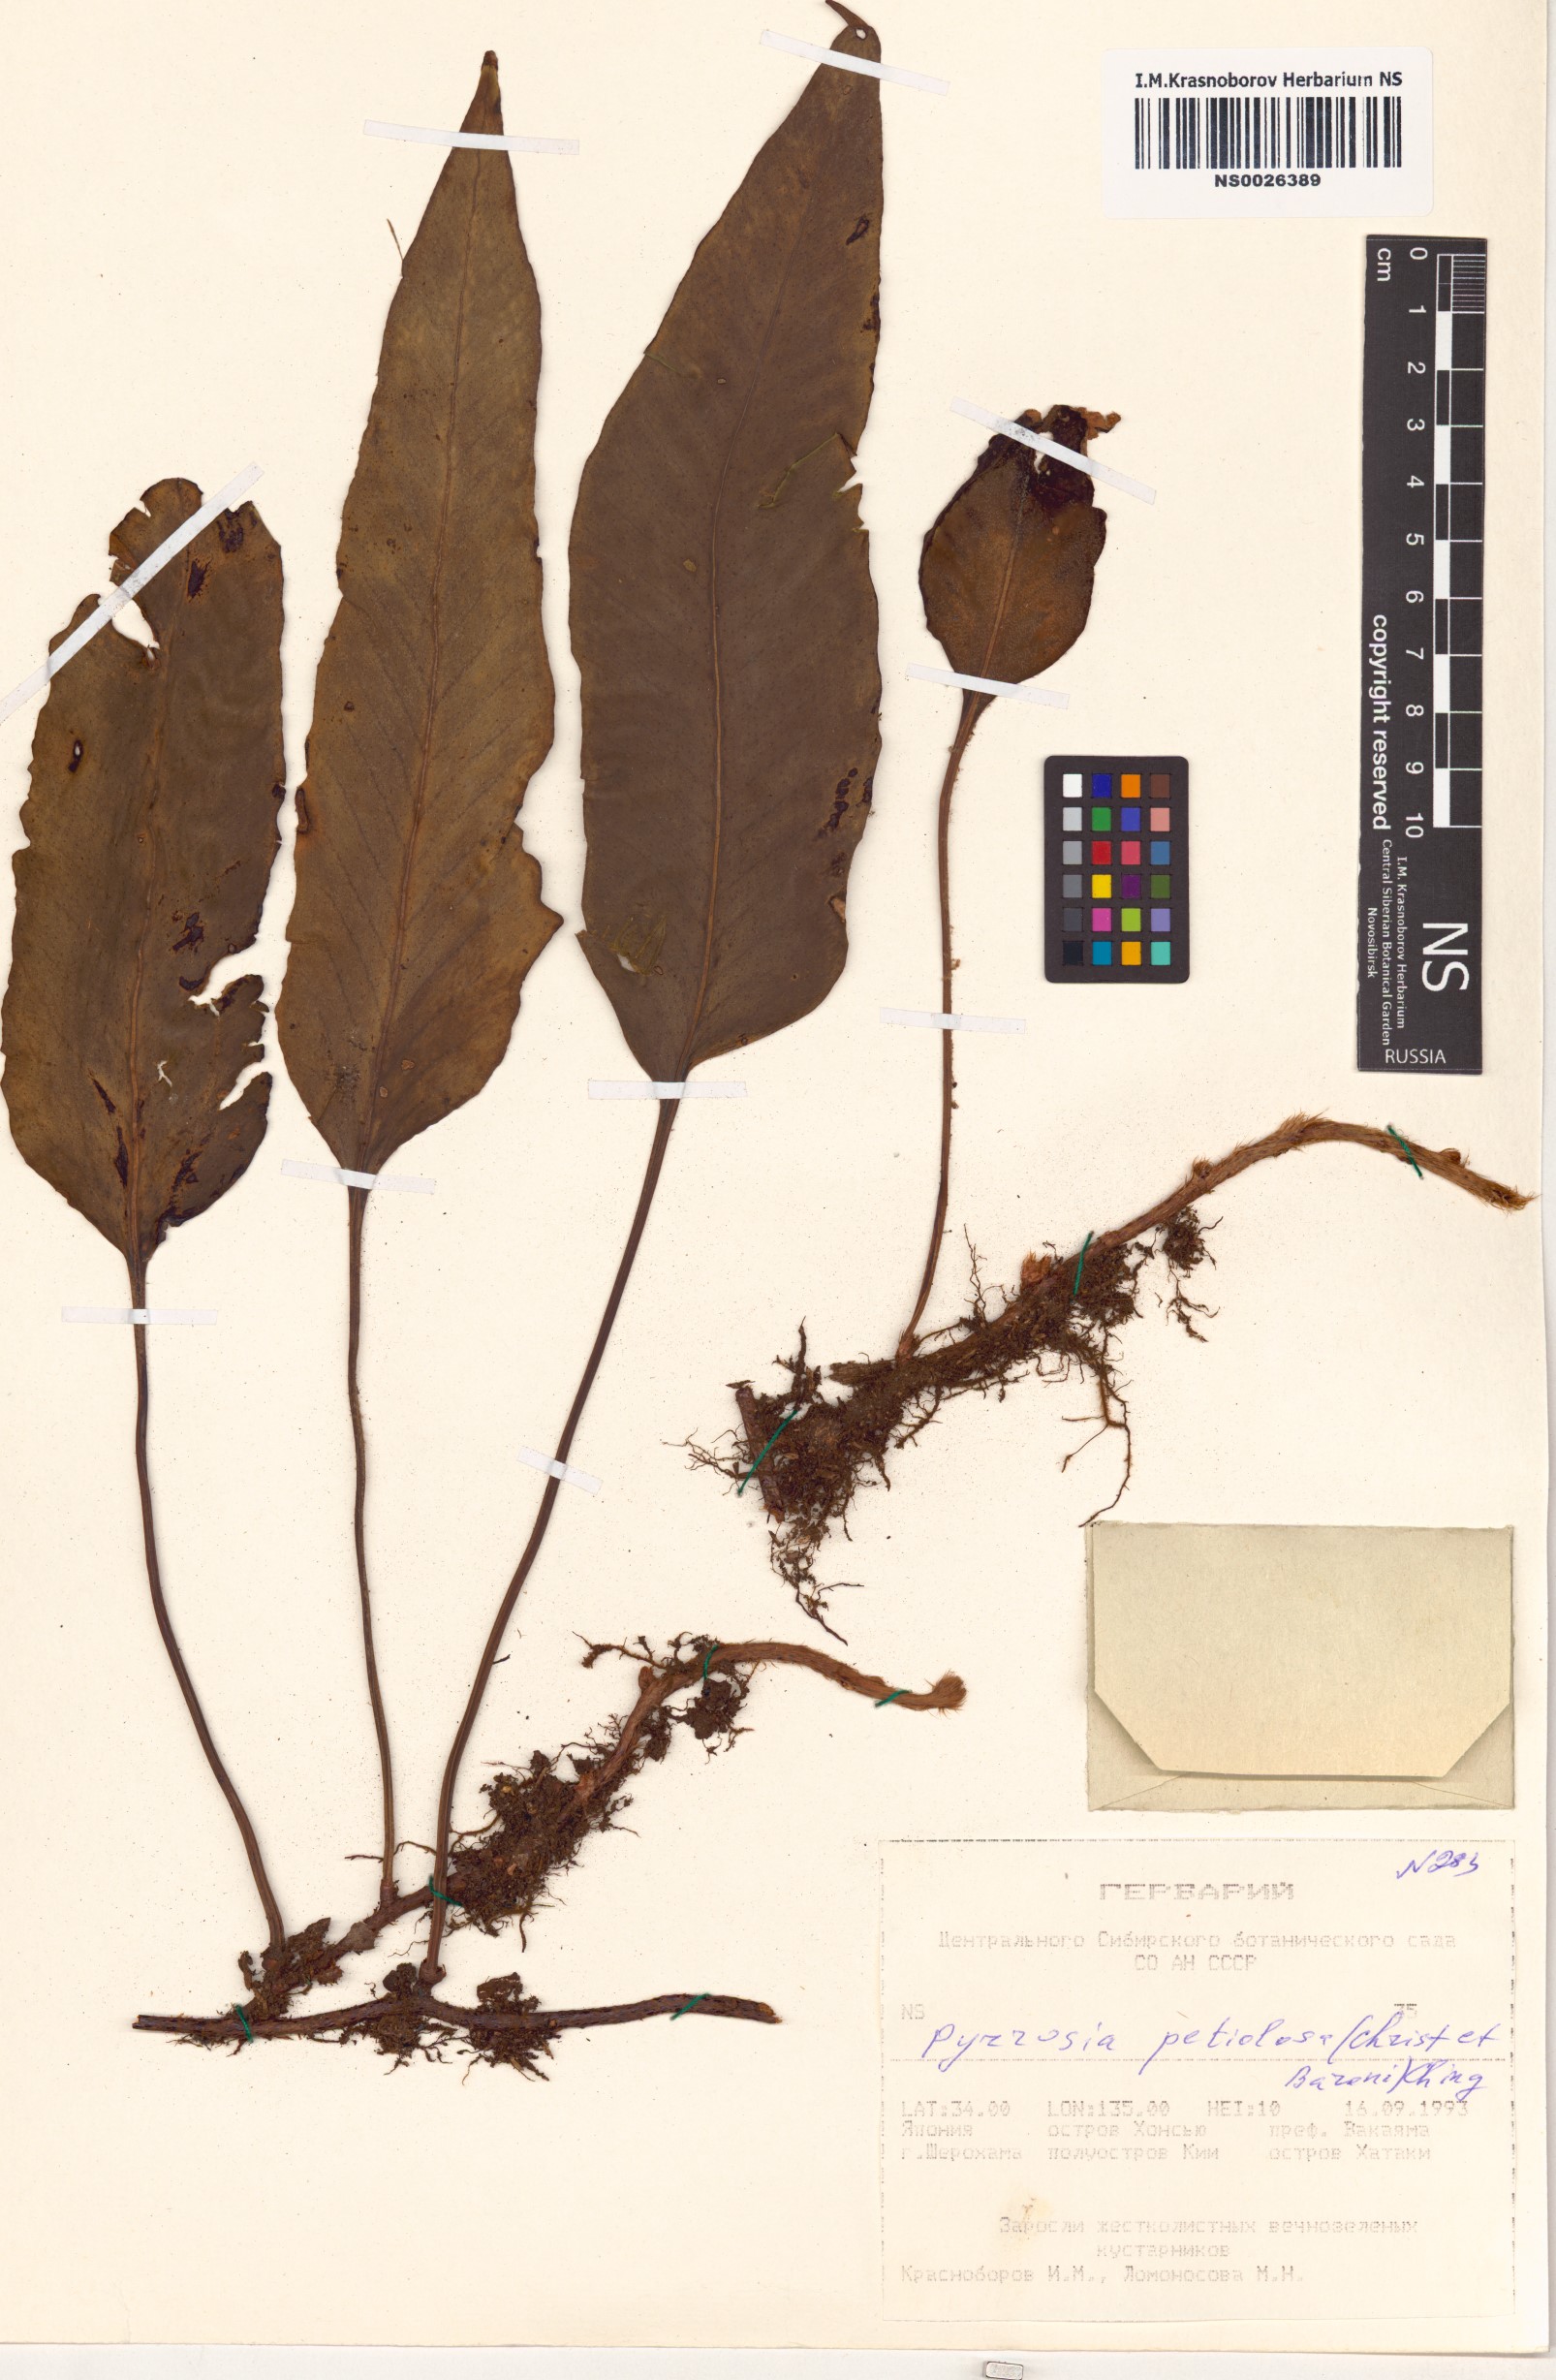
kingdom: Plantae
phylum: Tracheophyta
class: Polypodiopsida
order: Polypodiales
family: Polypodiaceae
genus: Pyrrosia
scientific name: Pyrrosia petiolosa
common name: Pyrrosia
